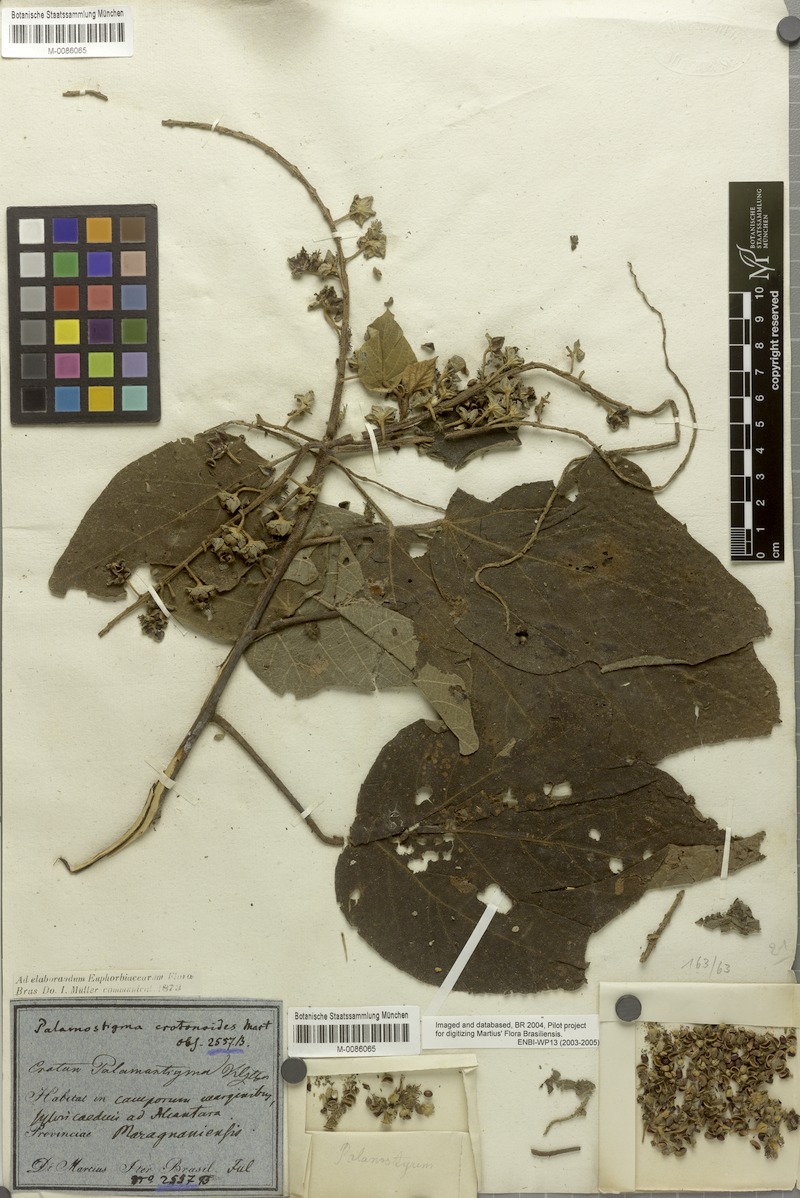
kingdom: Plantae
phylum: Tracheophyta
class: Magnoliopsida
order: Malpighiales
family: Euphorbiaceae
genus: Croton
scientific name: Croton palanostigma
